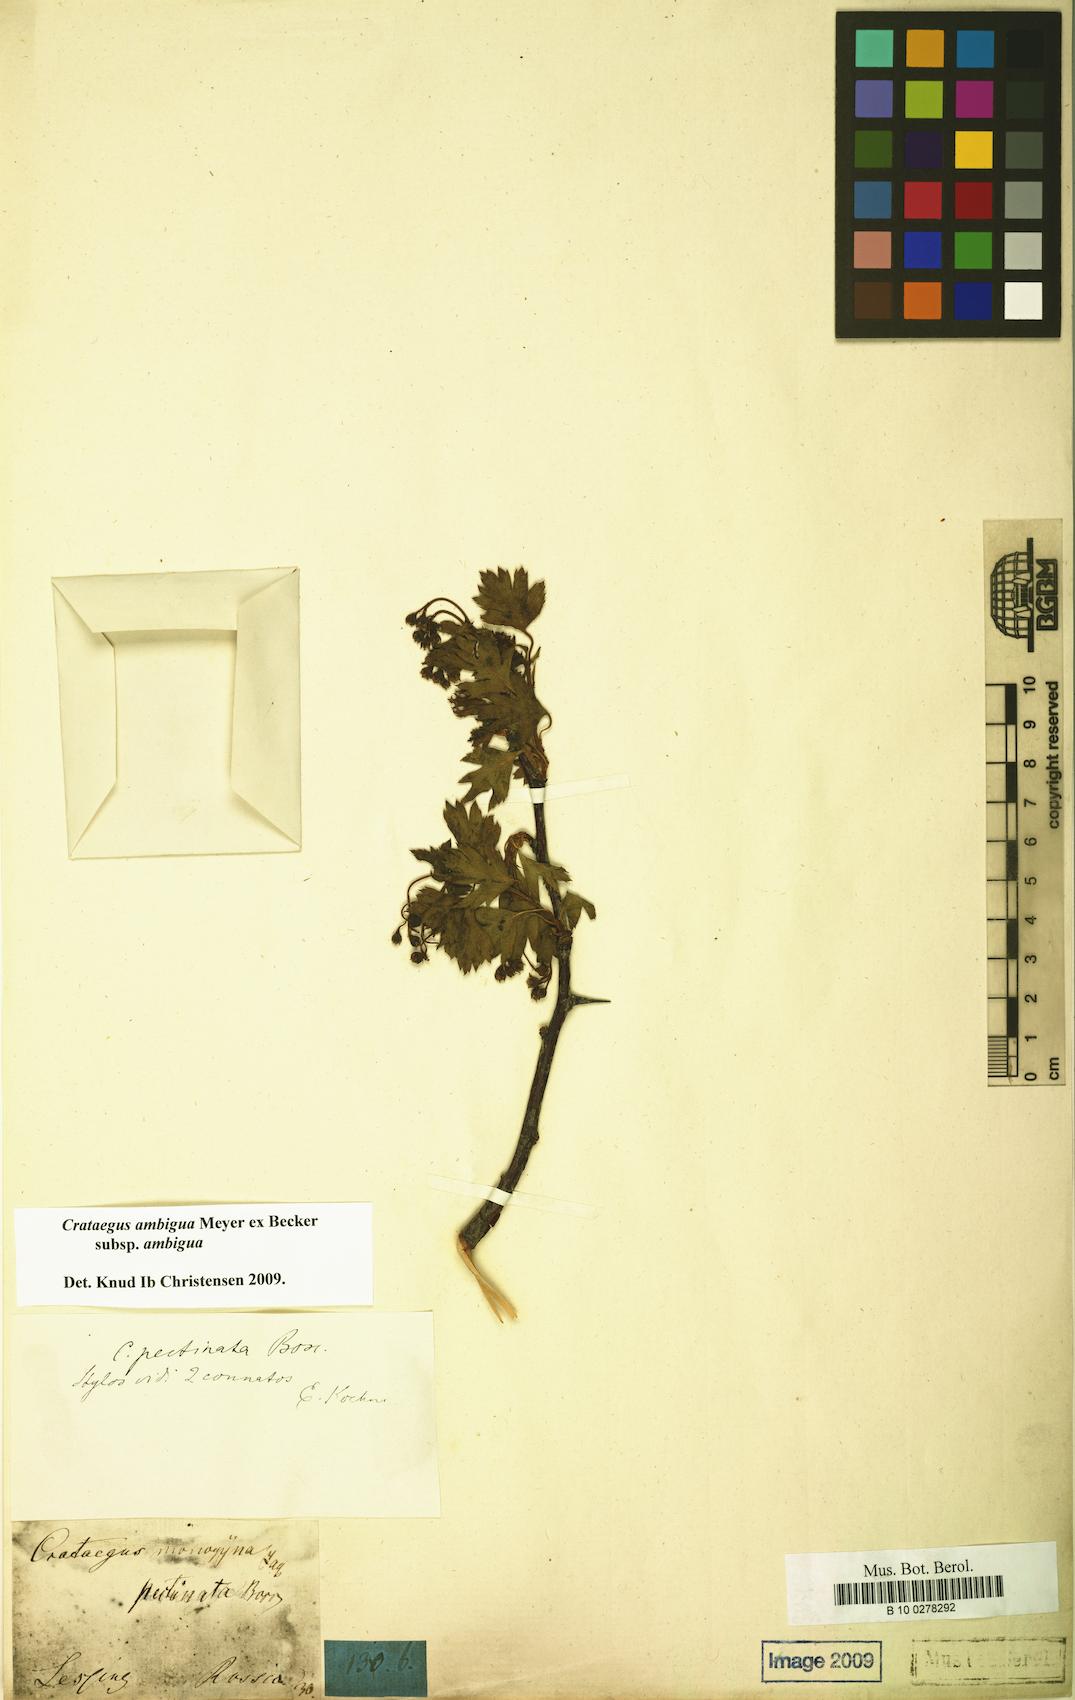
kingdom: Plantae
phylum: Tracheophyta
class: Magnoliopsida
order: Rosales
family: Rosaceae
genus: Crataegus
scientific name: Crataegus ambigua
